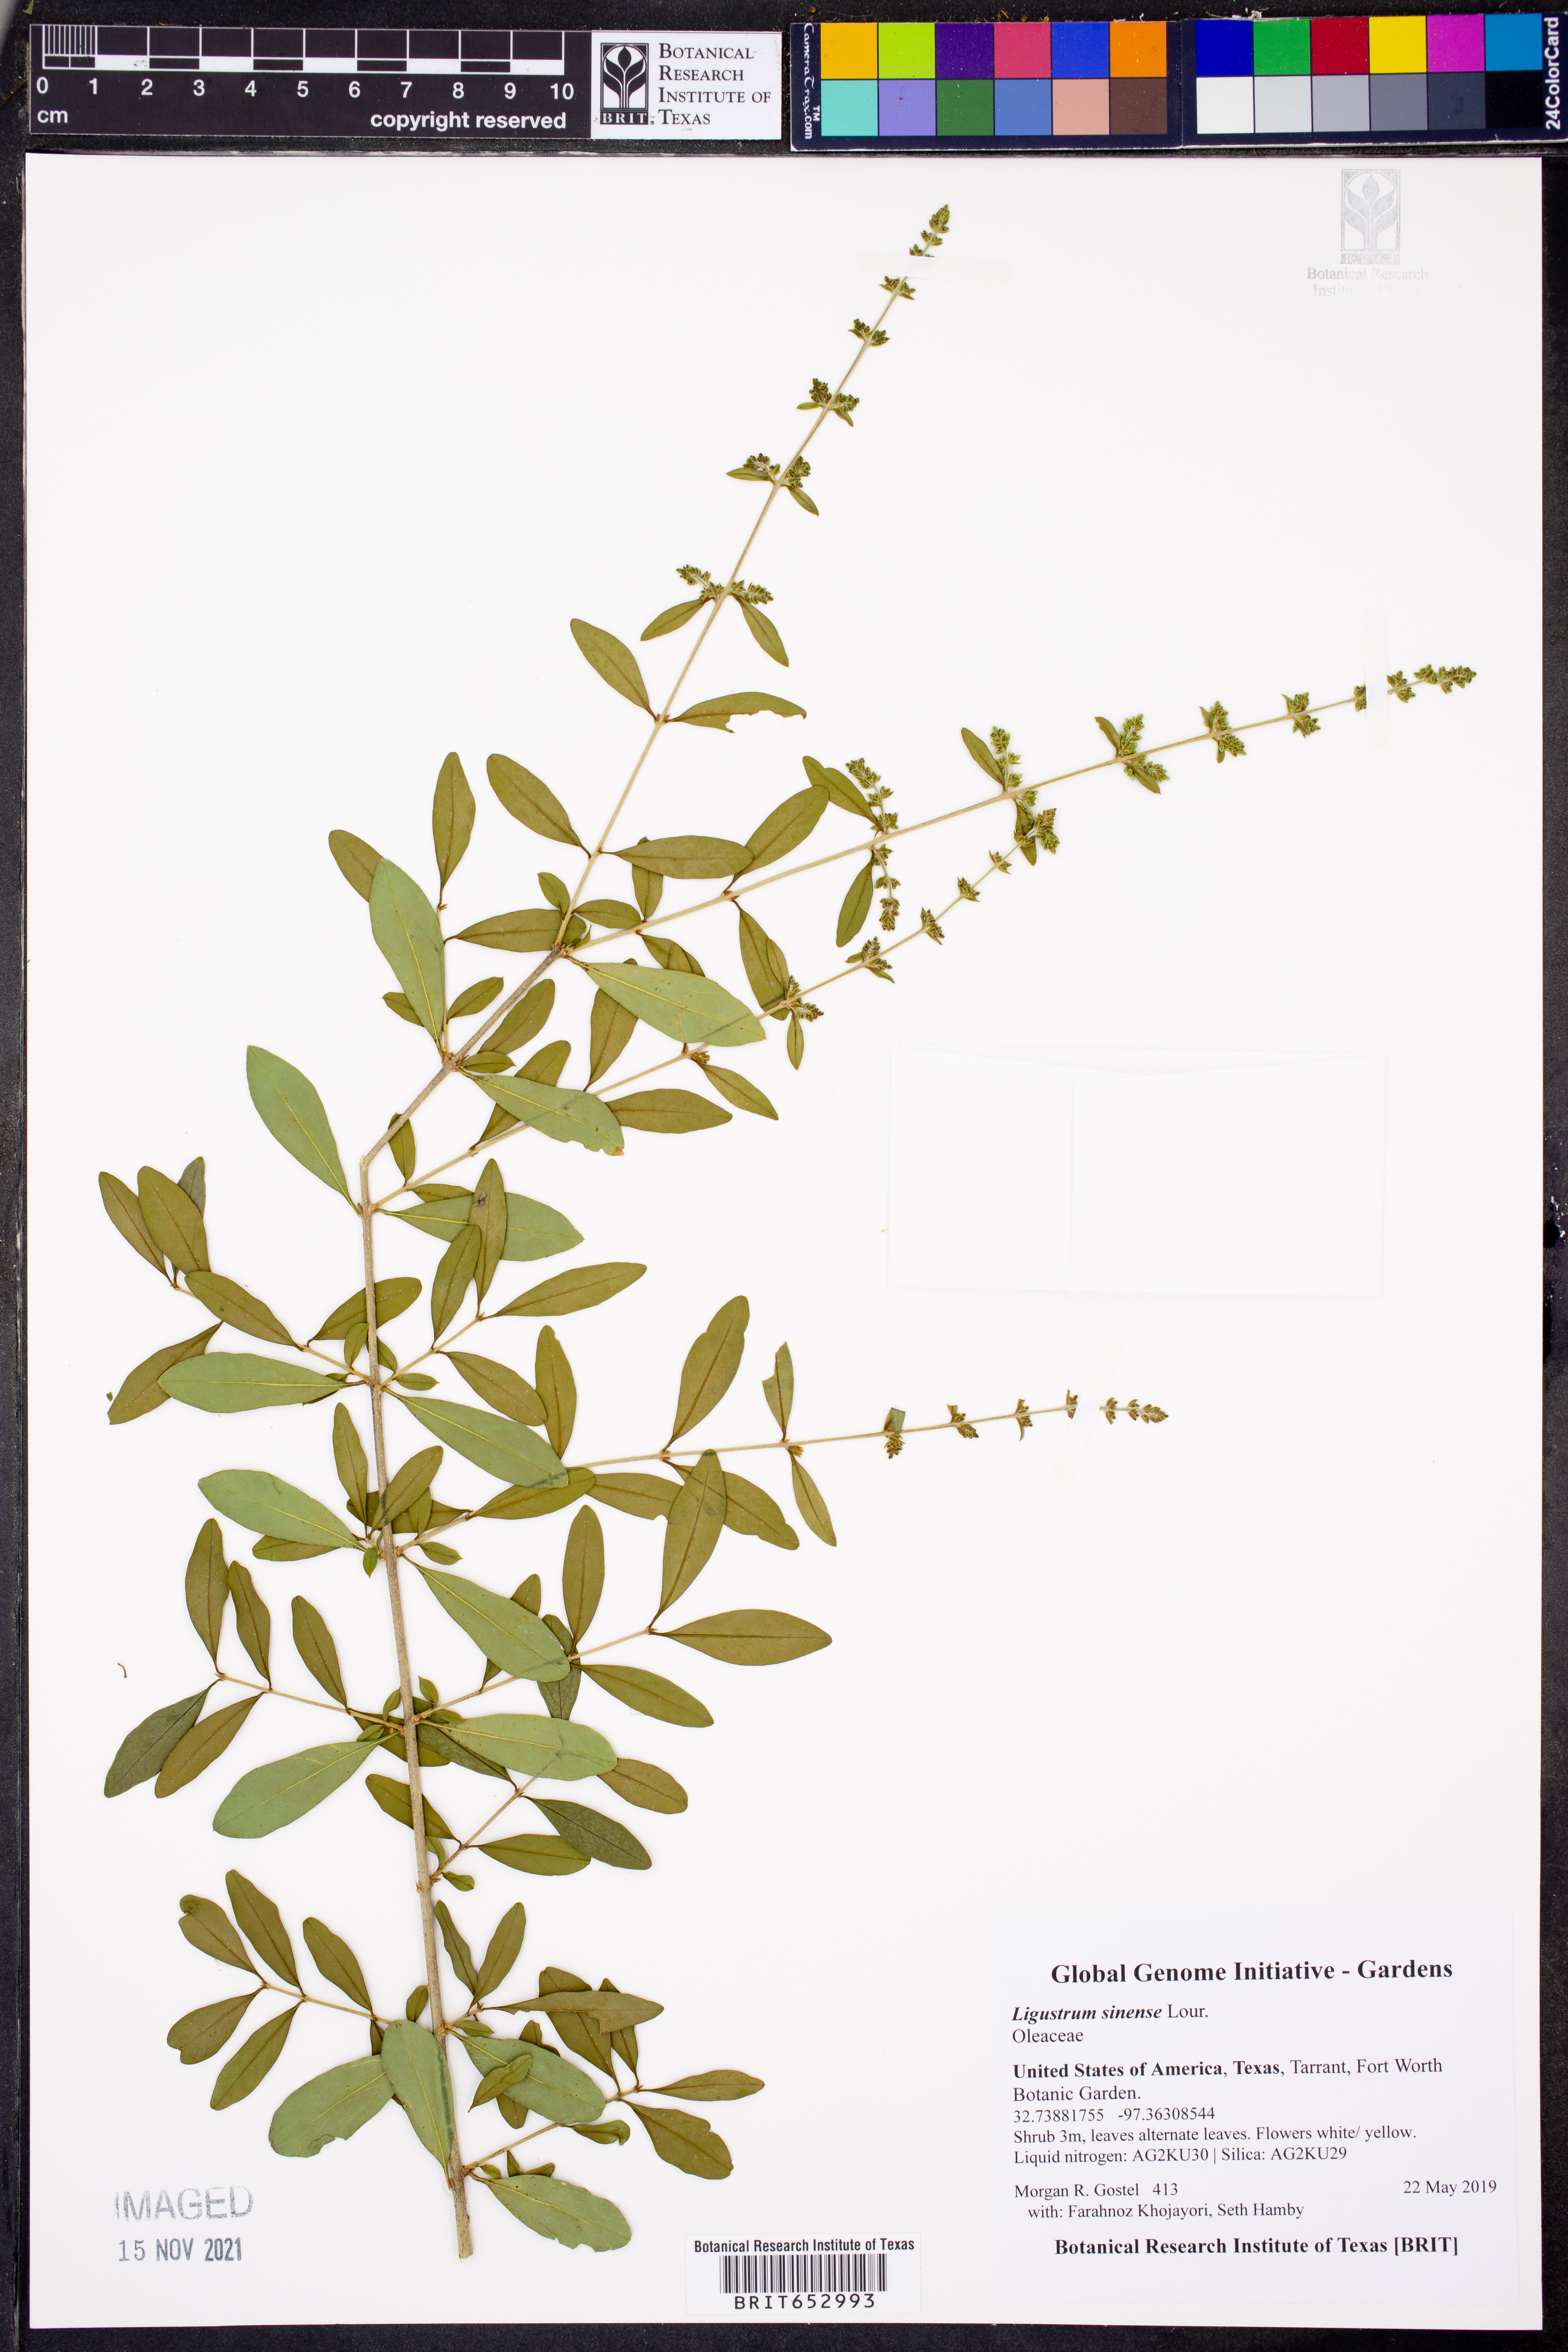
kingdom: Plantae
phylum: Tracheophyta
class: Magnoliopsida
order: Lamiales
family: Oleaceae
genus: Ligustrum
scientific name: Ligustrum sinense
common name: Chinese privet
